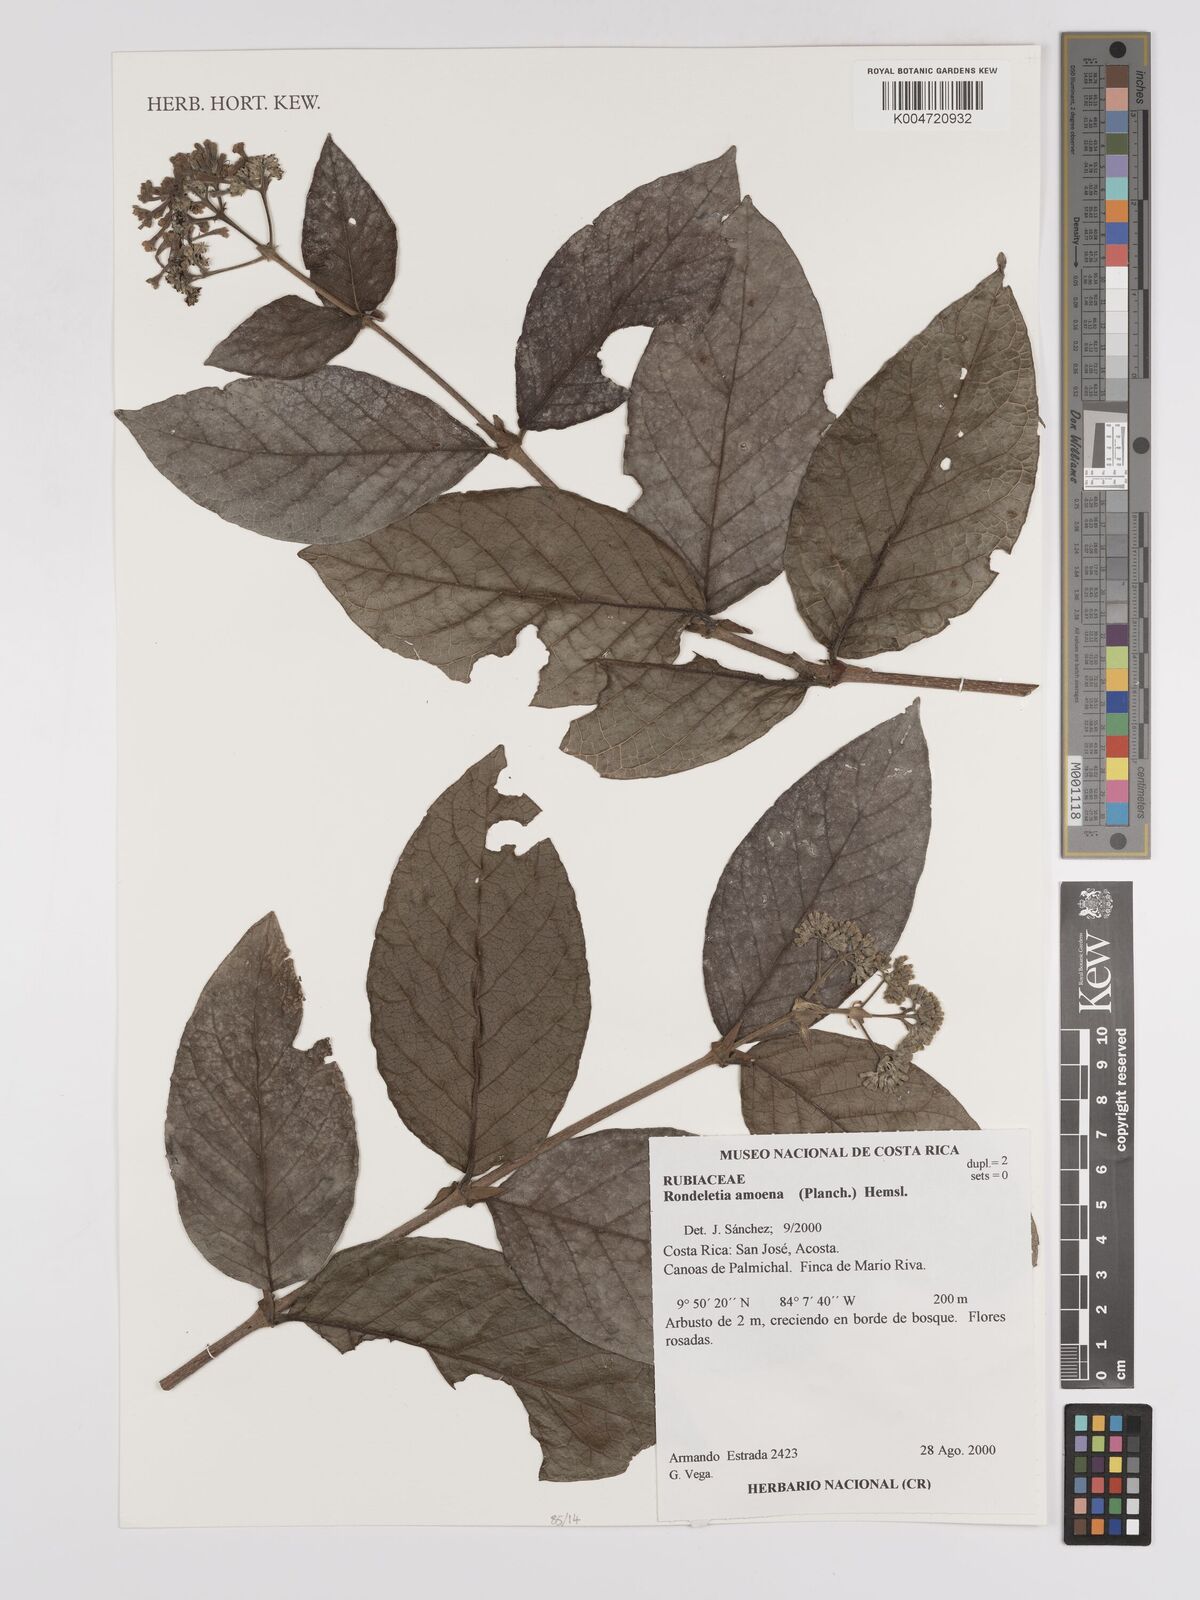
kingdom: Plantae
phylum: Tracheophyta
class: Magnoliopsida
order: Gentianales
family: Rubiaceae
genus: Rogiera
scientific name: Rogiera amoena
